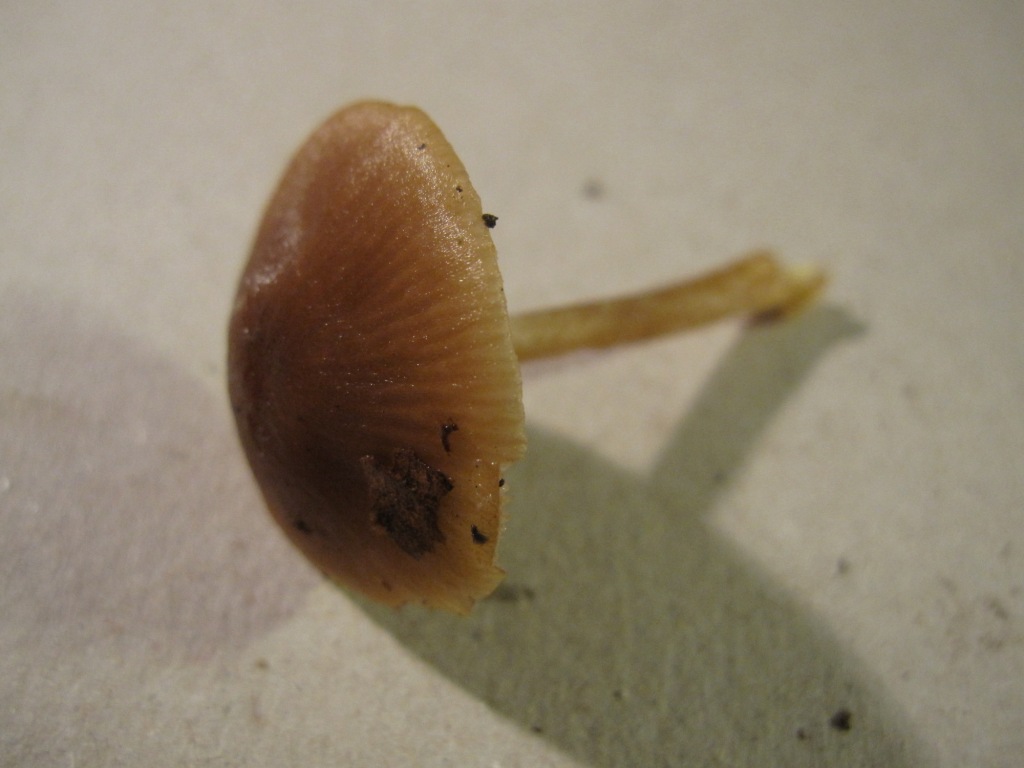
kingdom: Fungi
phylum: Basidiomycota
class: Agaricomycetes
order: Agaricales
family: Entolomataceae
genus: Entoloma
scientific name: Entoloma cetratum
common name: voks-rødblad
